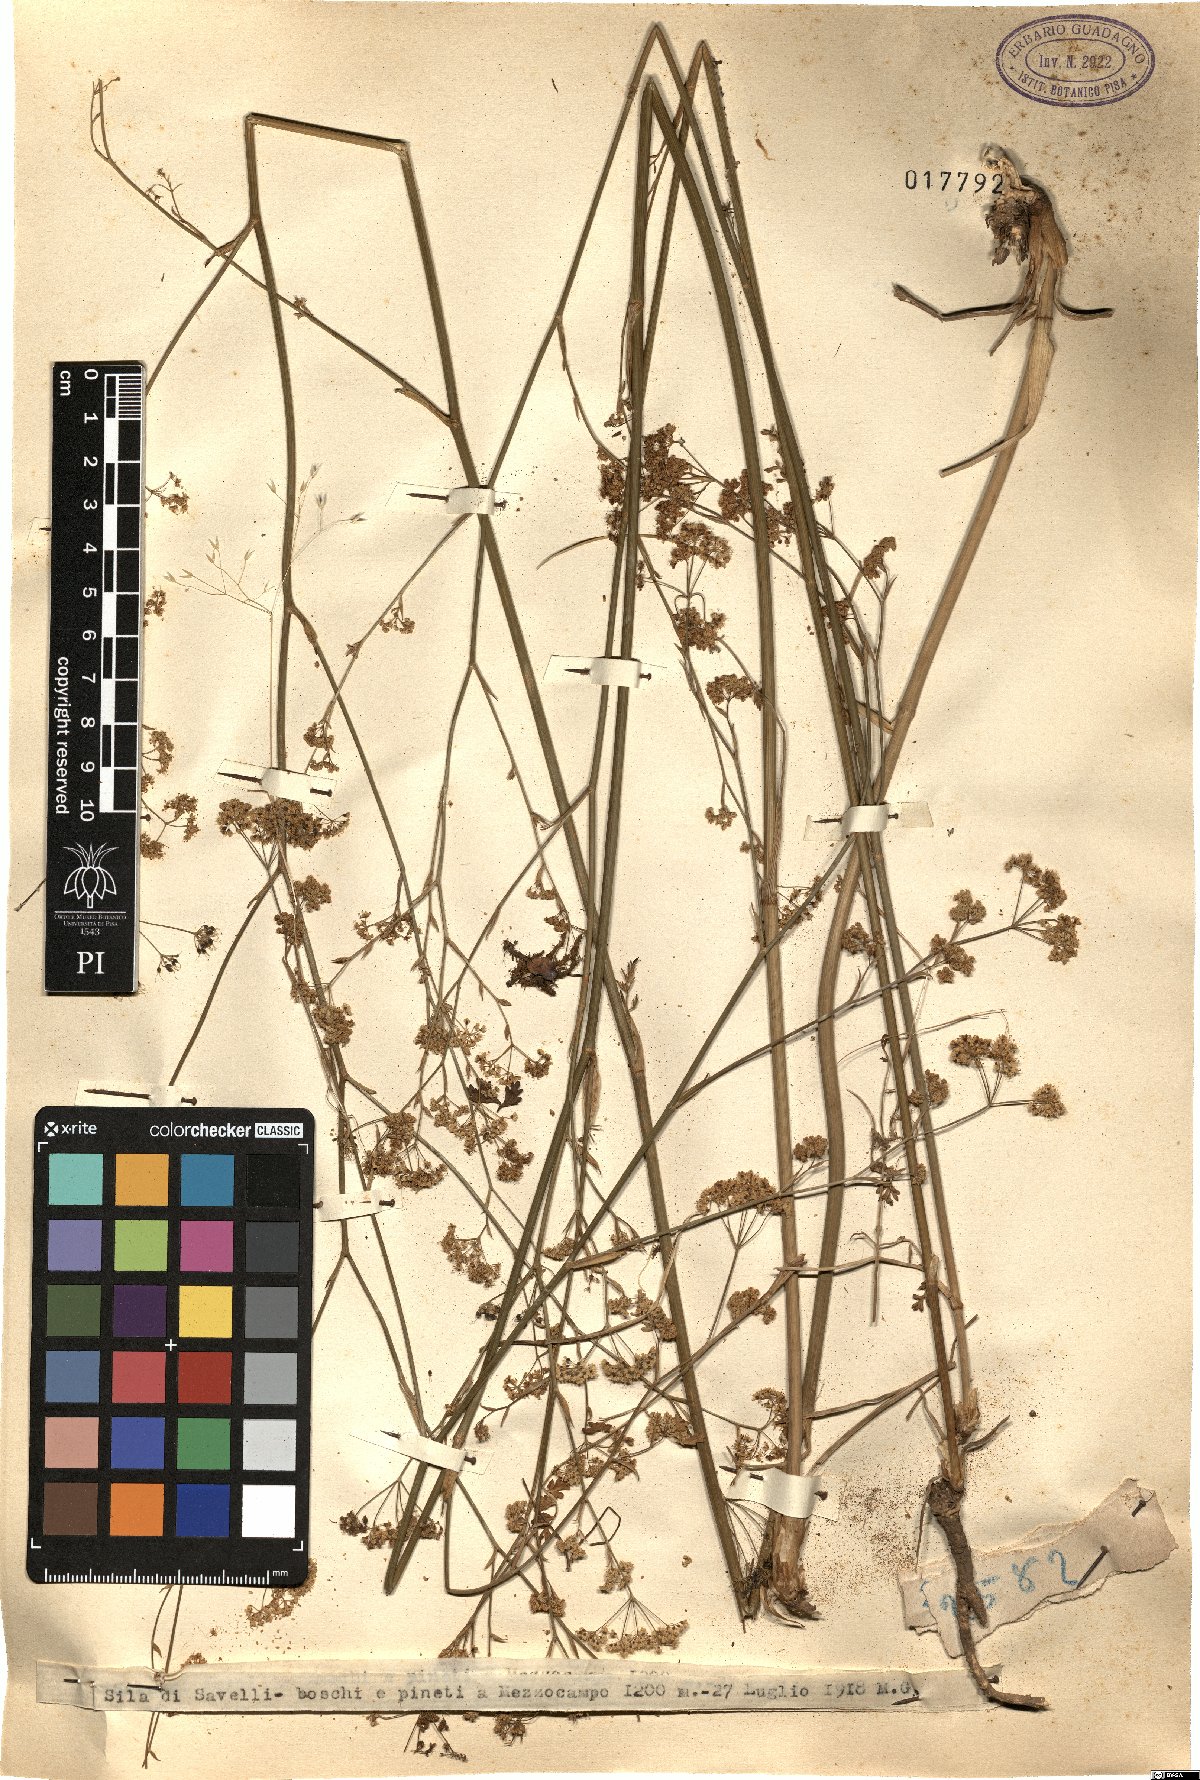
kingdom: Plantae
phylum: Tracheophyta
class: Magnoliopsida
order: Apiales
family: Apiaceae
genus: Pimpinella
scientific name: Pimpinella
